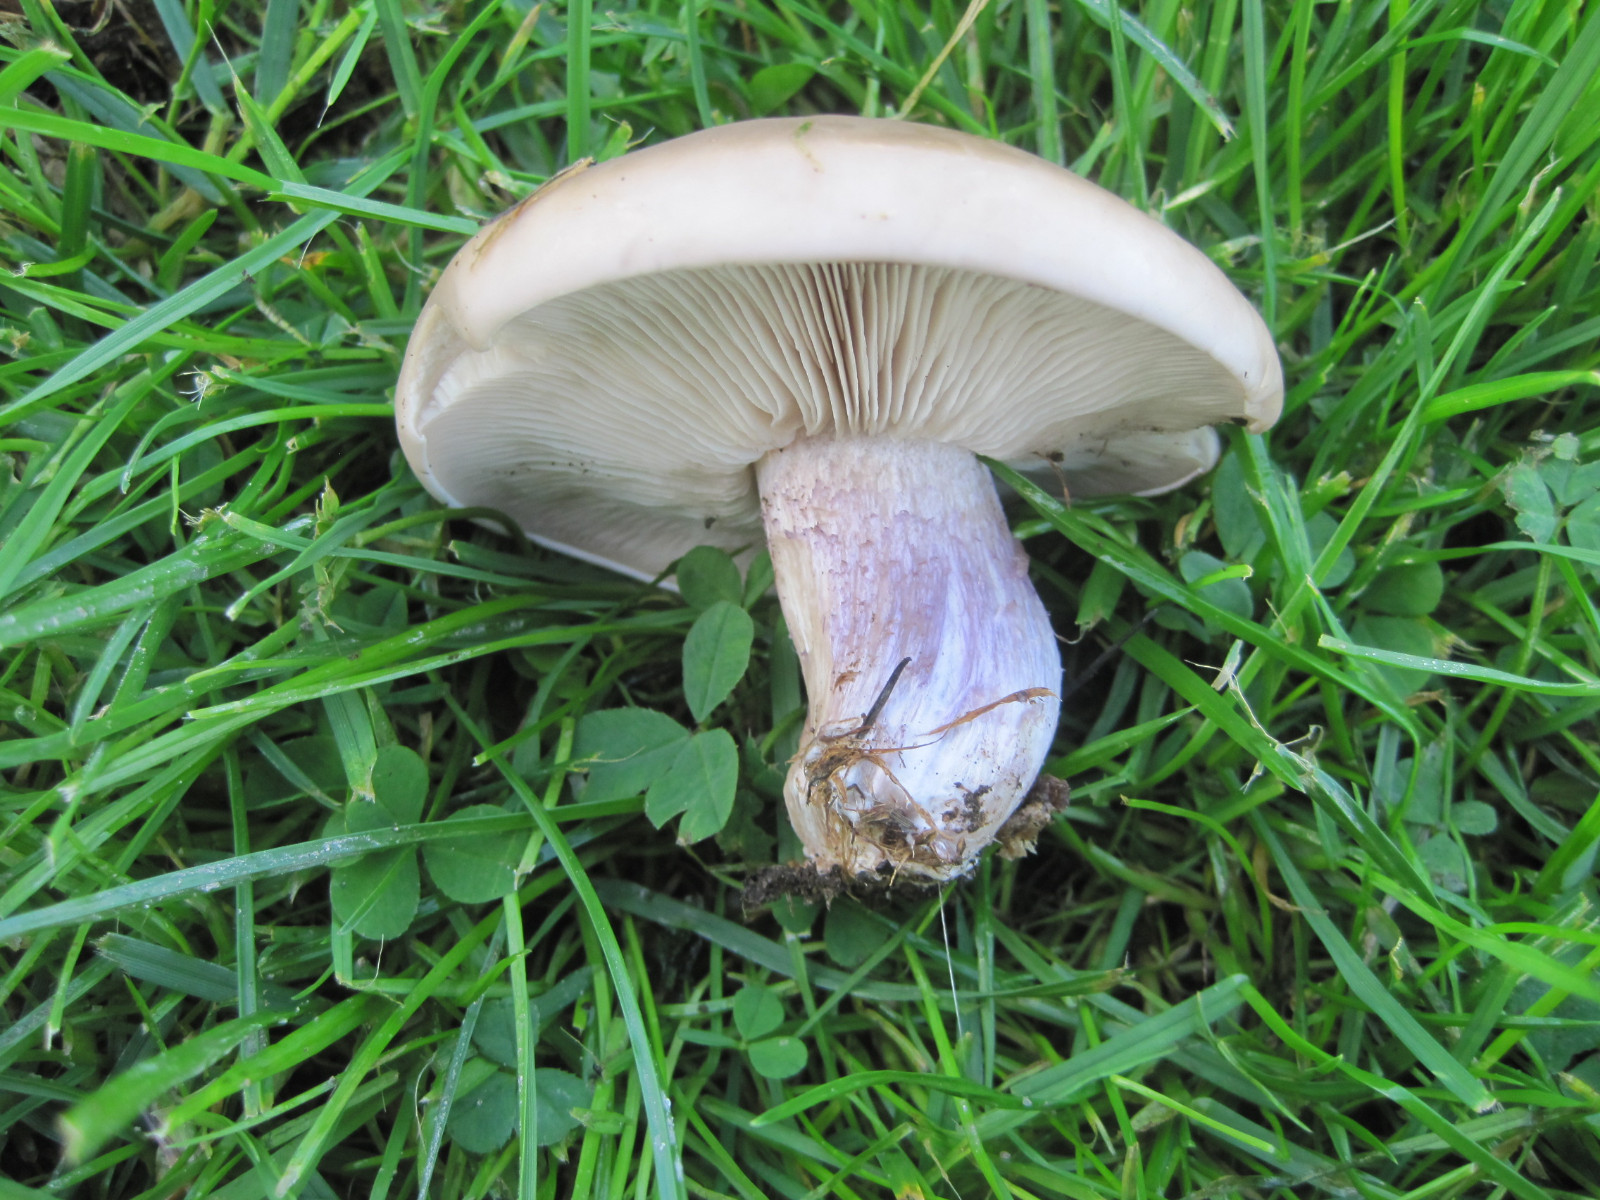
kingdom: Fungi
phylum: Basidiomycota
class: Agaricomycetes
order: Agaricales
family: Tricholomataceae
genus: Lepista
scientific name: Lepista personata
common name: bleg hekseringshat
